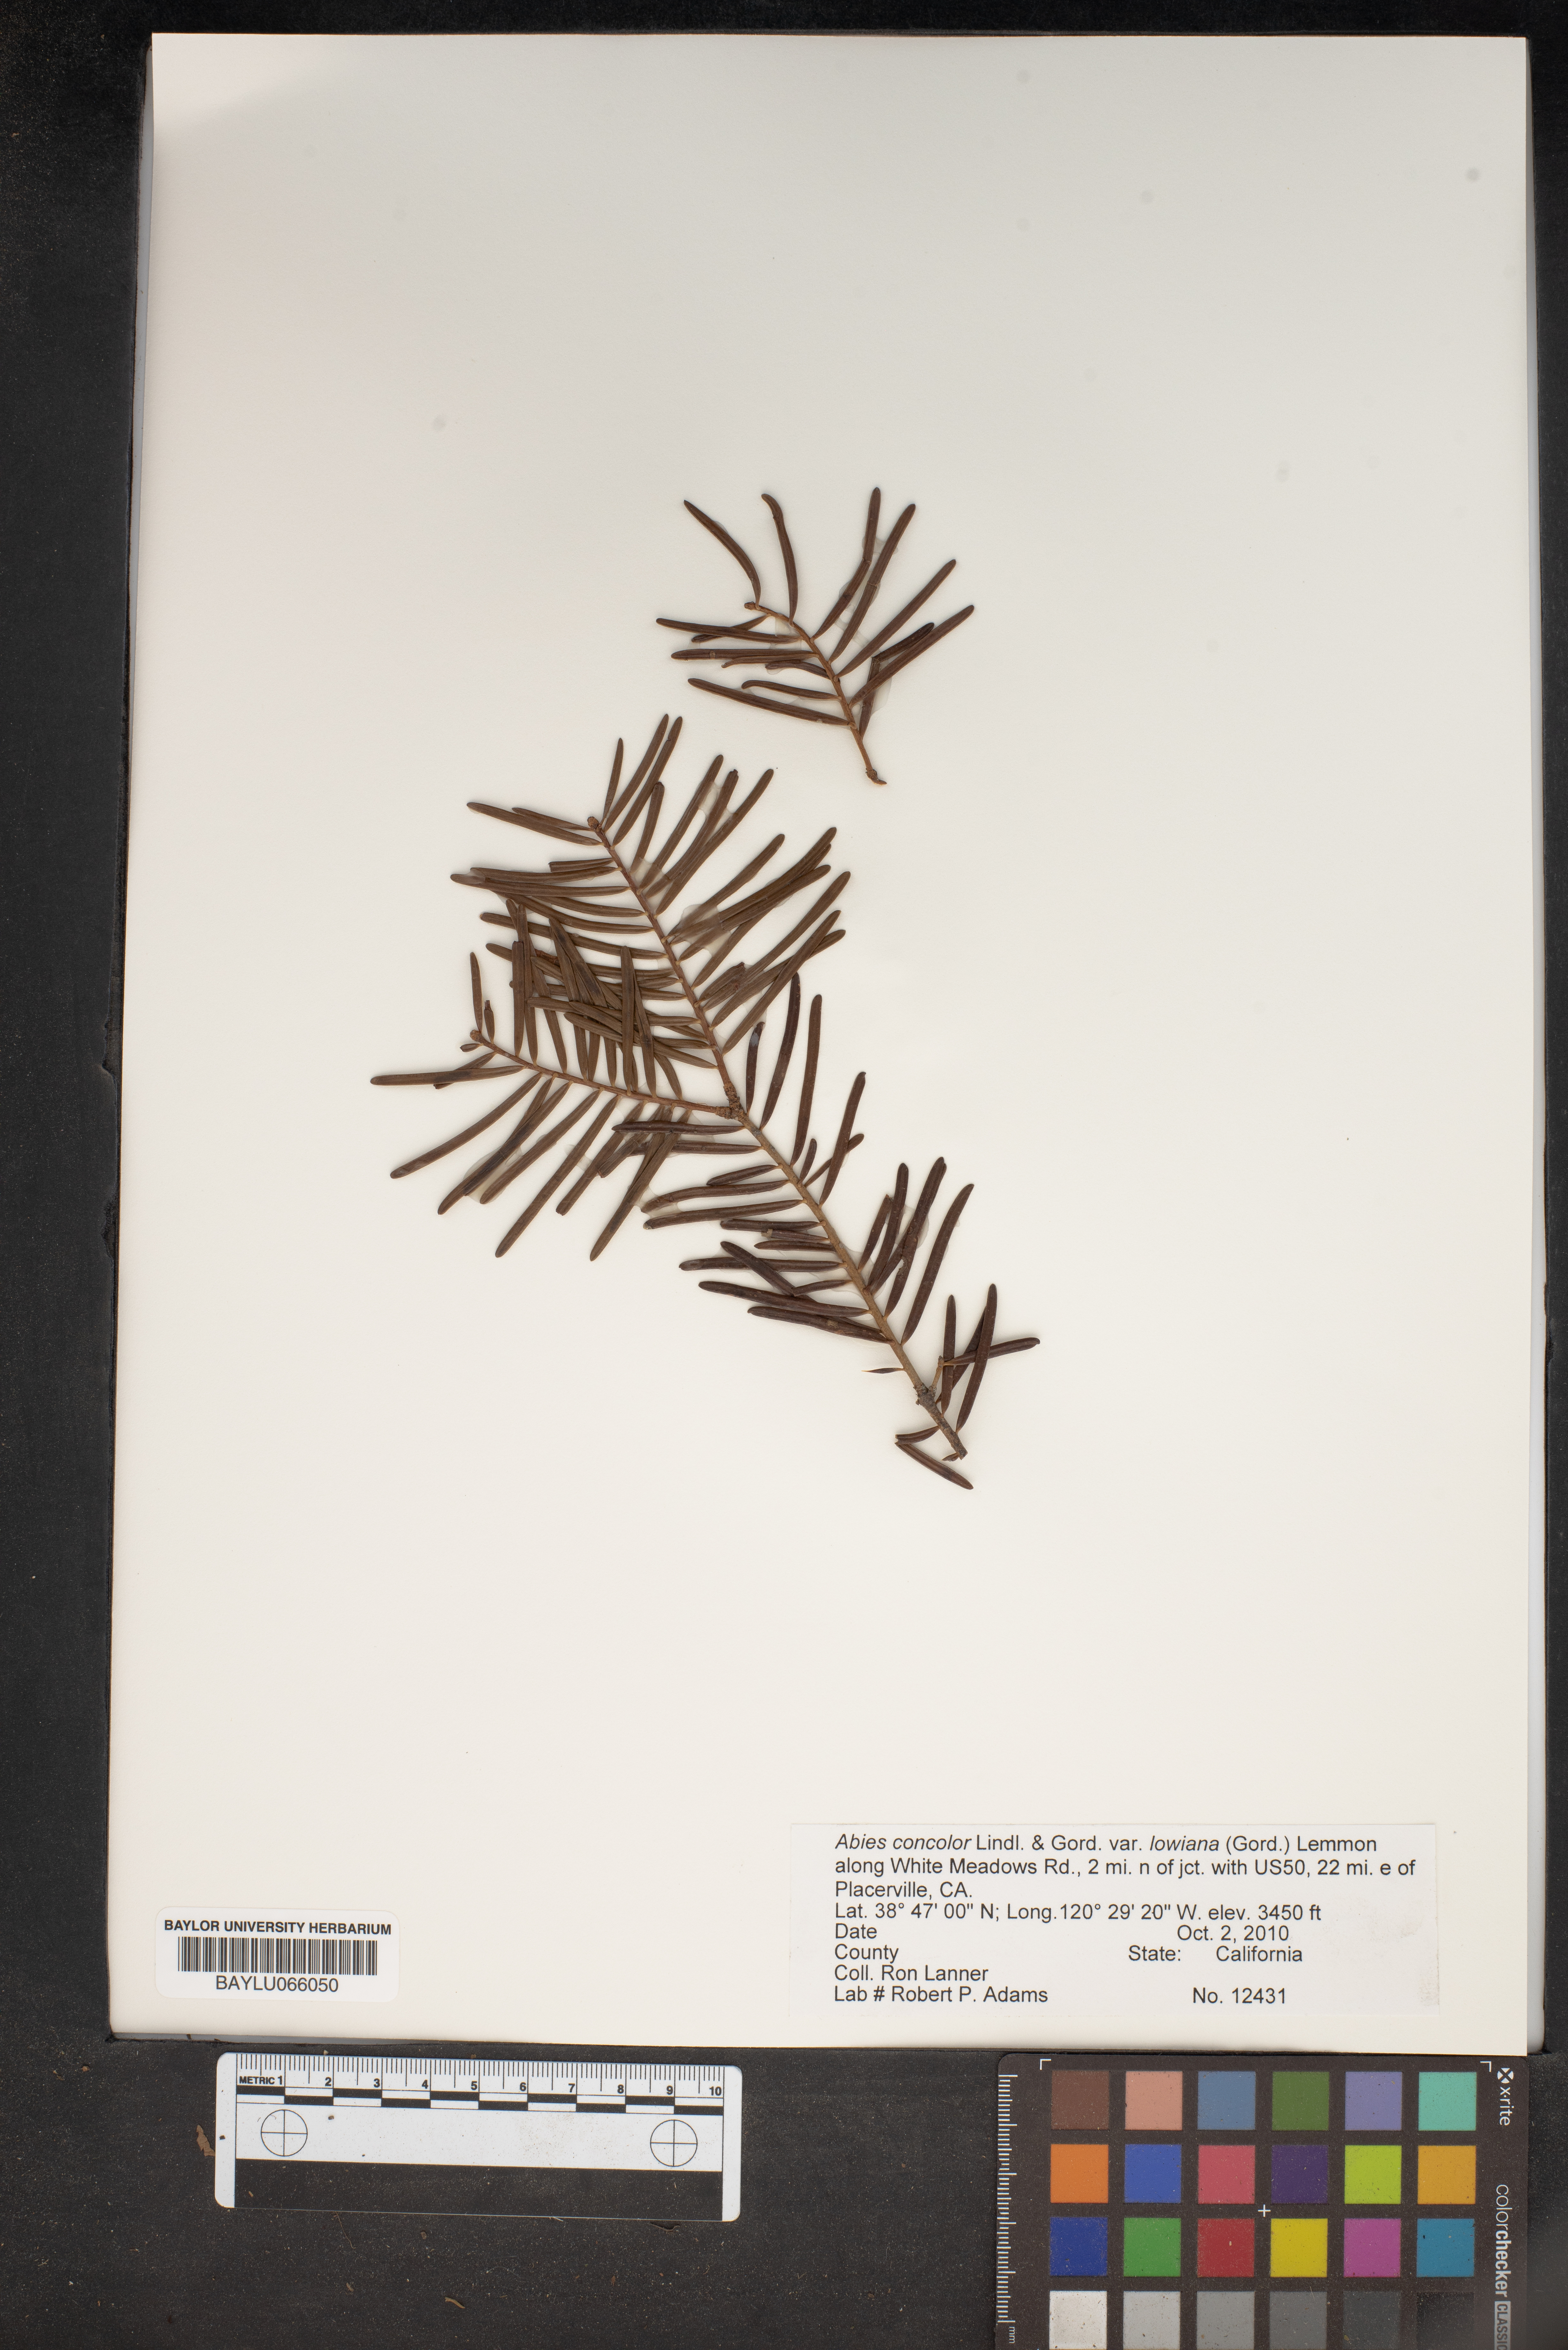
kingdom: Plantae
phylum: Tracheophyta
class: Pinopsida
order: Pinales
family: Pinaceae
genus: Abies
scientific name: Abies concolor
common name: Colorado fir
